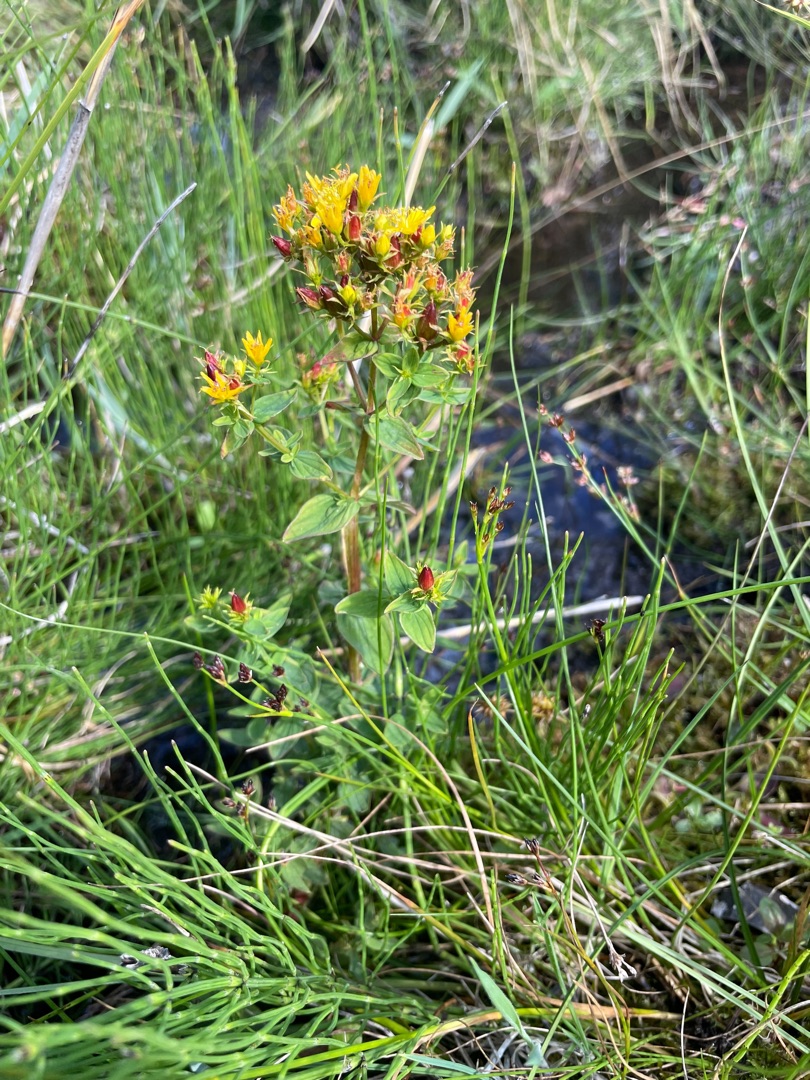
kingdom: Plantae
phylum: Tracheophyta
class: Magnoliopsida
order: Malpighiales
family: Hypericaceae
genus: Hypericum
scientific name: Hypericum tetrapterum
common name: Vinget perikon
